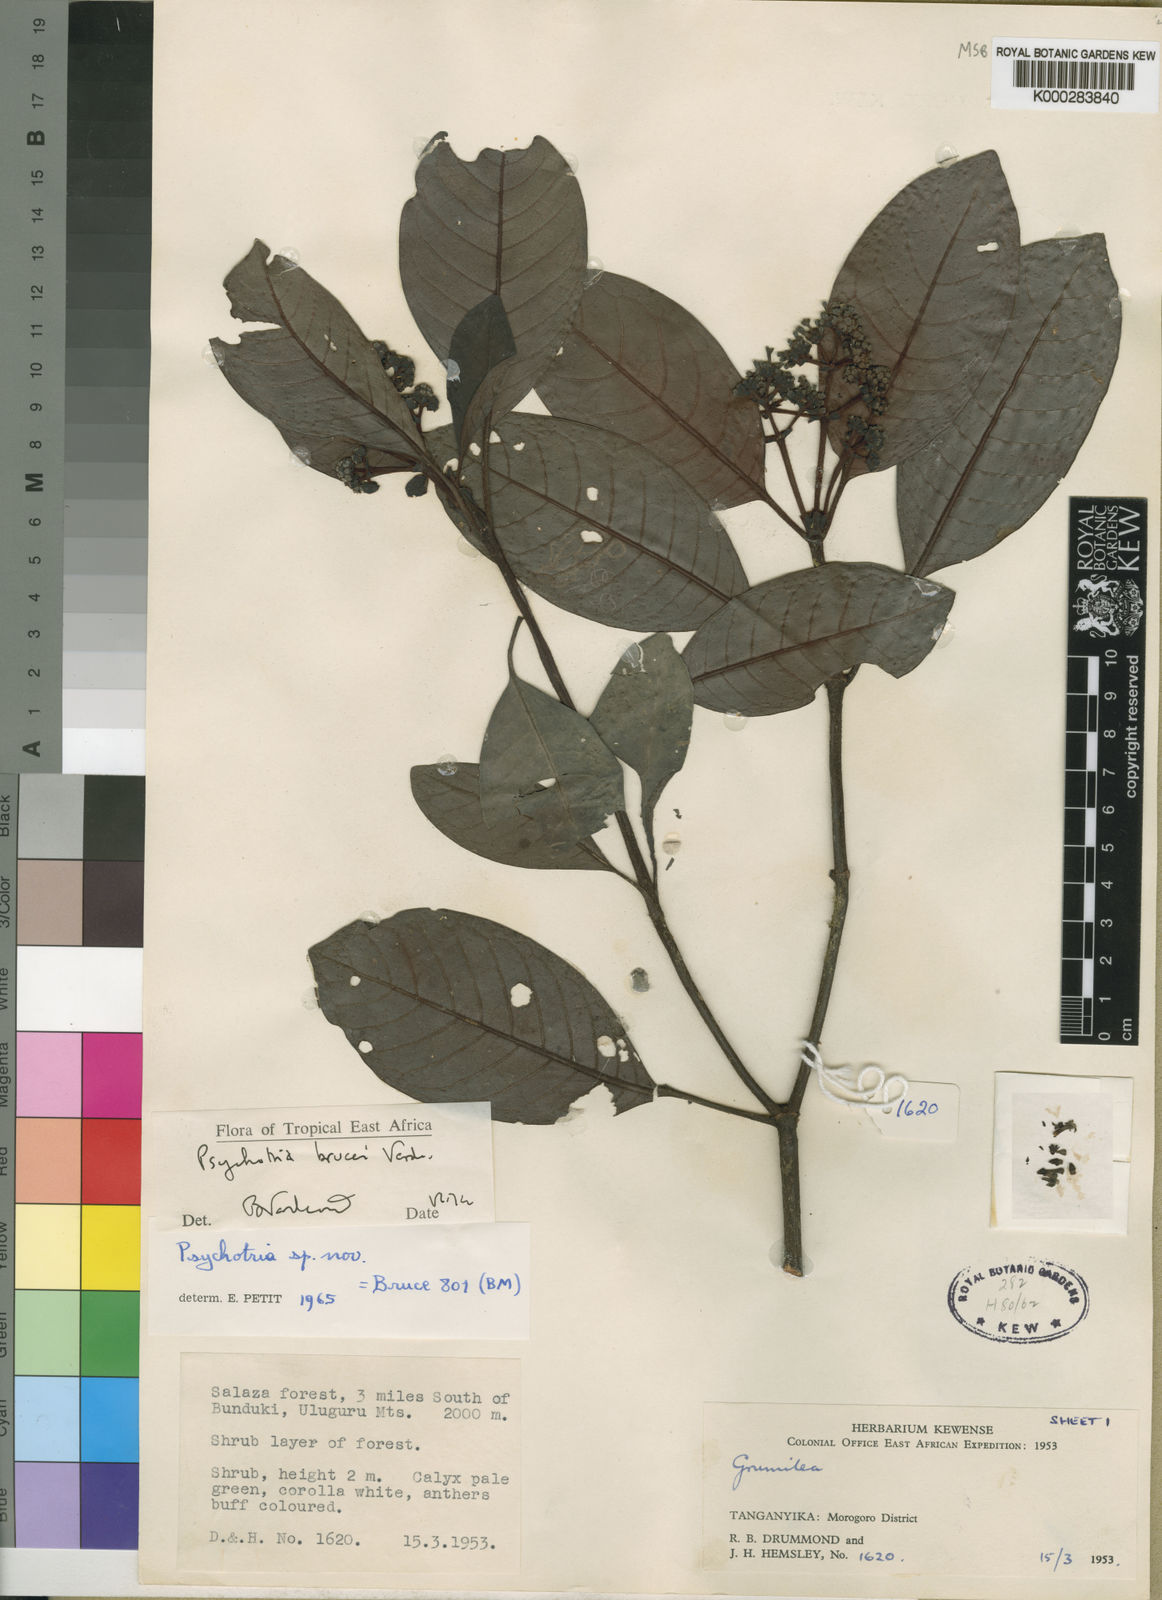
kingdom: Plantae
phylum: Tracheophyta
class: Magnoliopsida
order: Gentianales
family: Rubiaceae
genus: Psychotria
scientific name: Psychotria brucei
